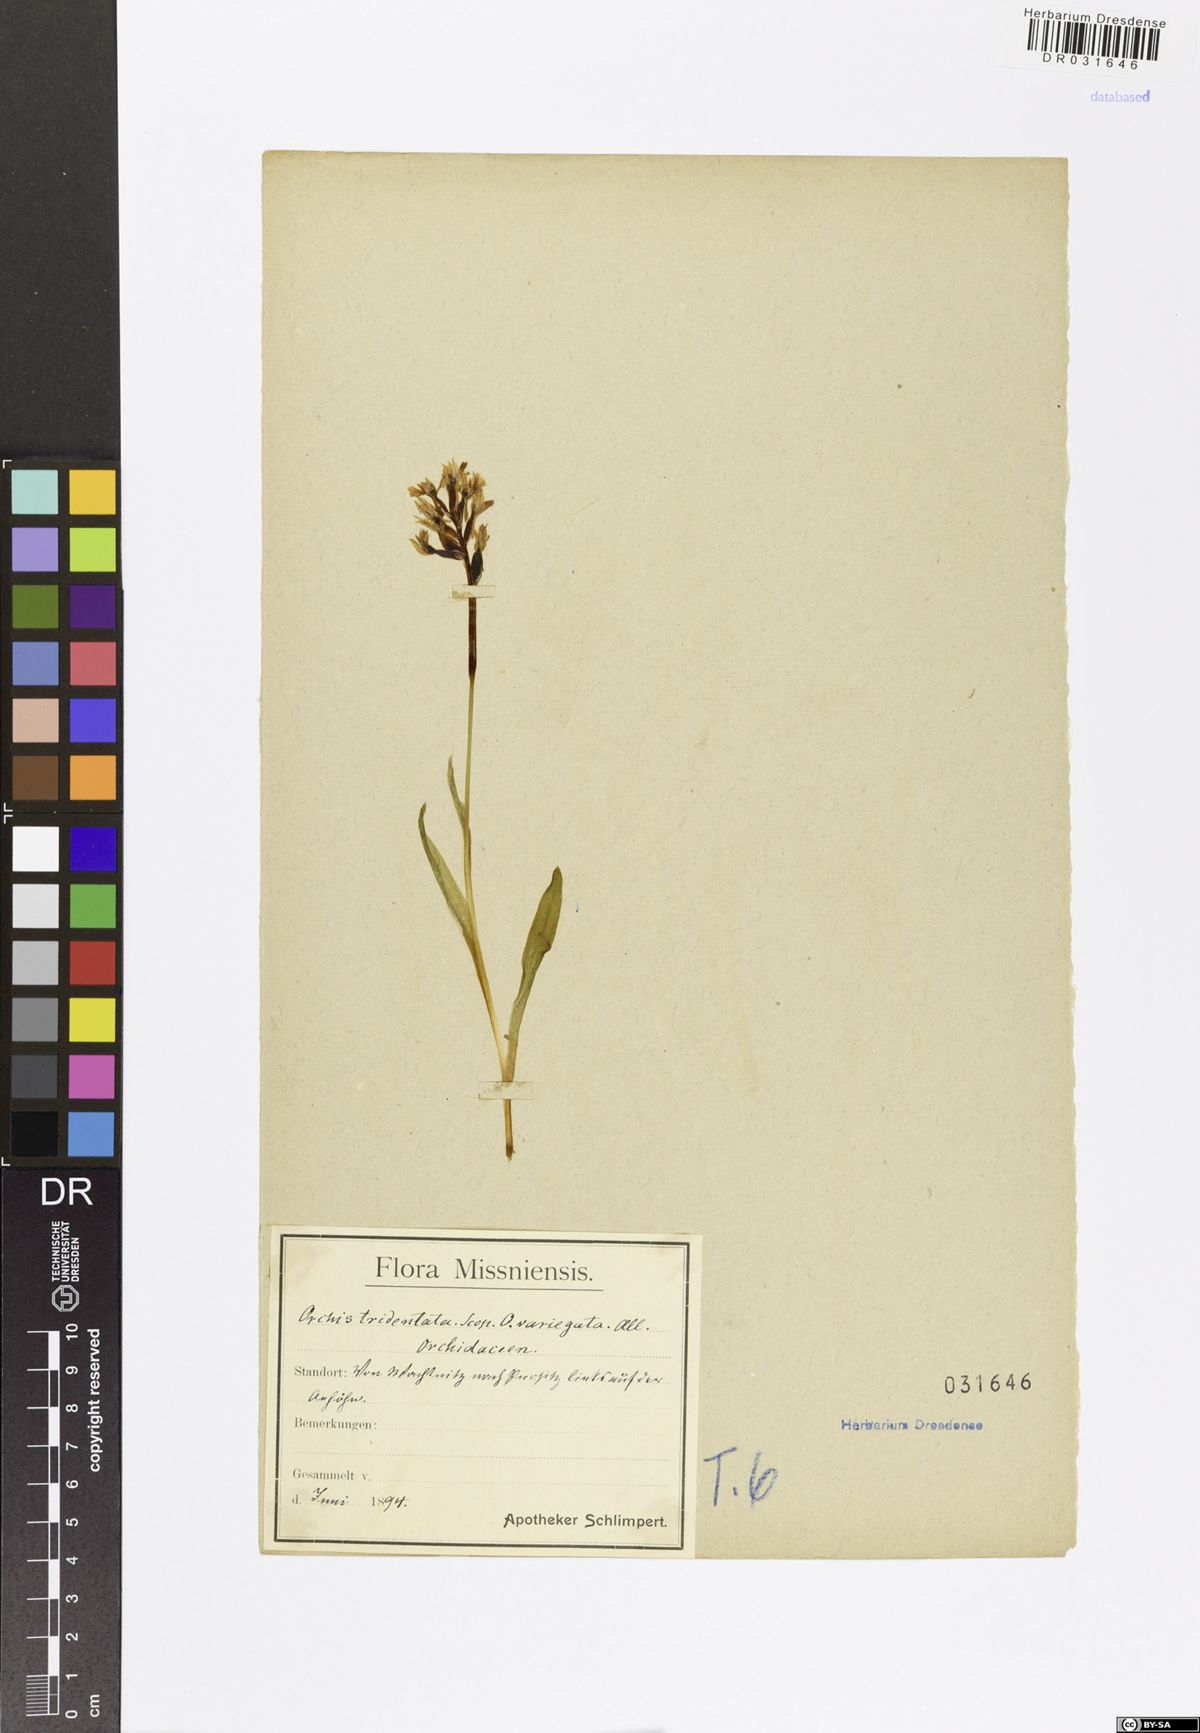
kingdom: Plantae
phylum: Tracheophyta
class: Liliopsida
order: Asparagales
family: Orchidaceae
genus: Neotinea
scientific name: Neotinea tridentata
